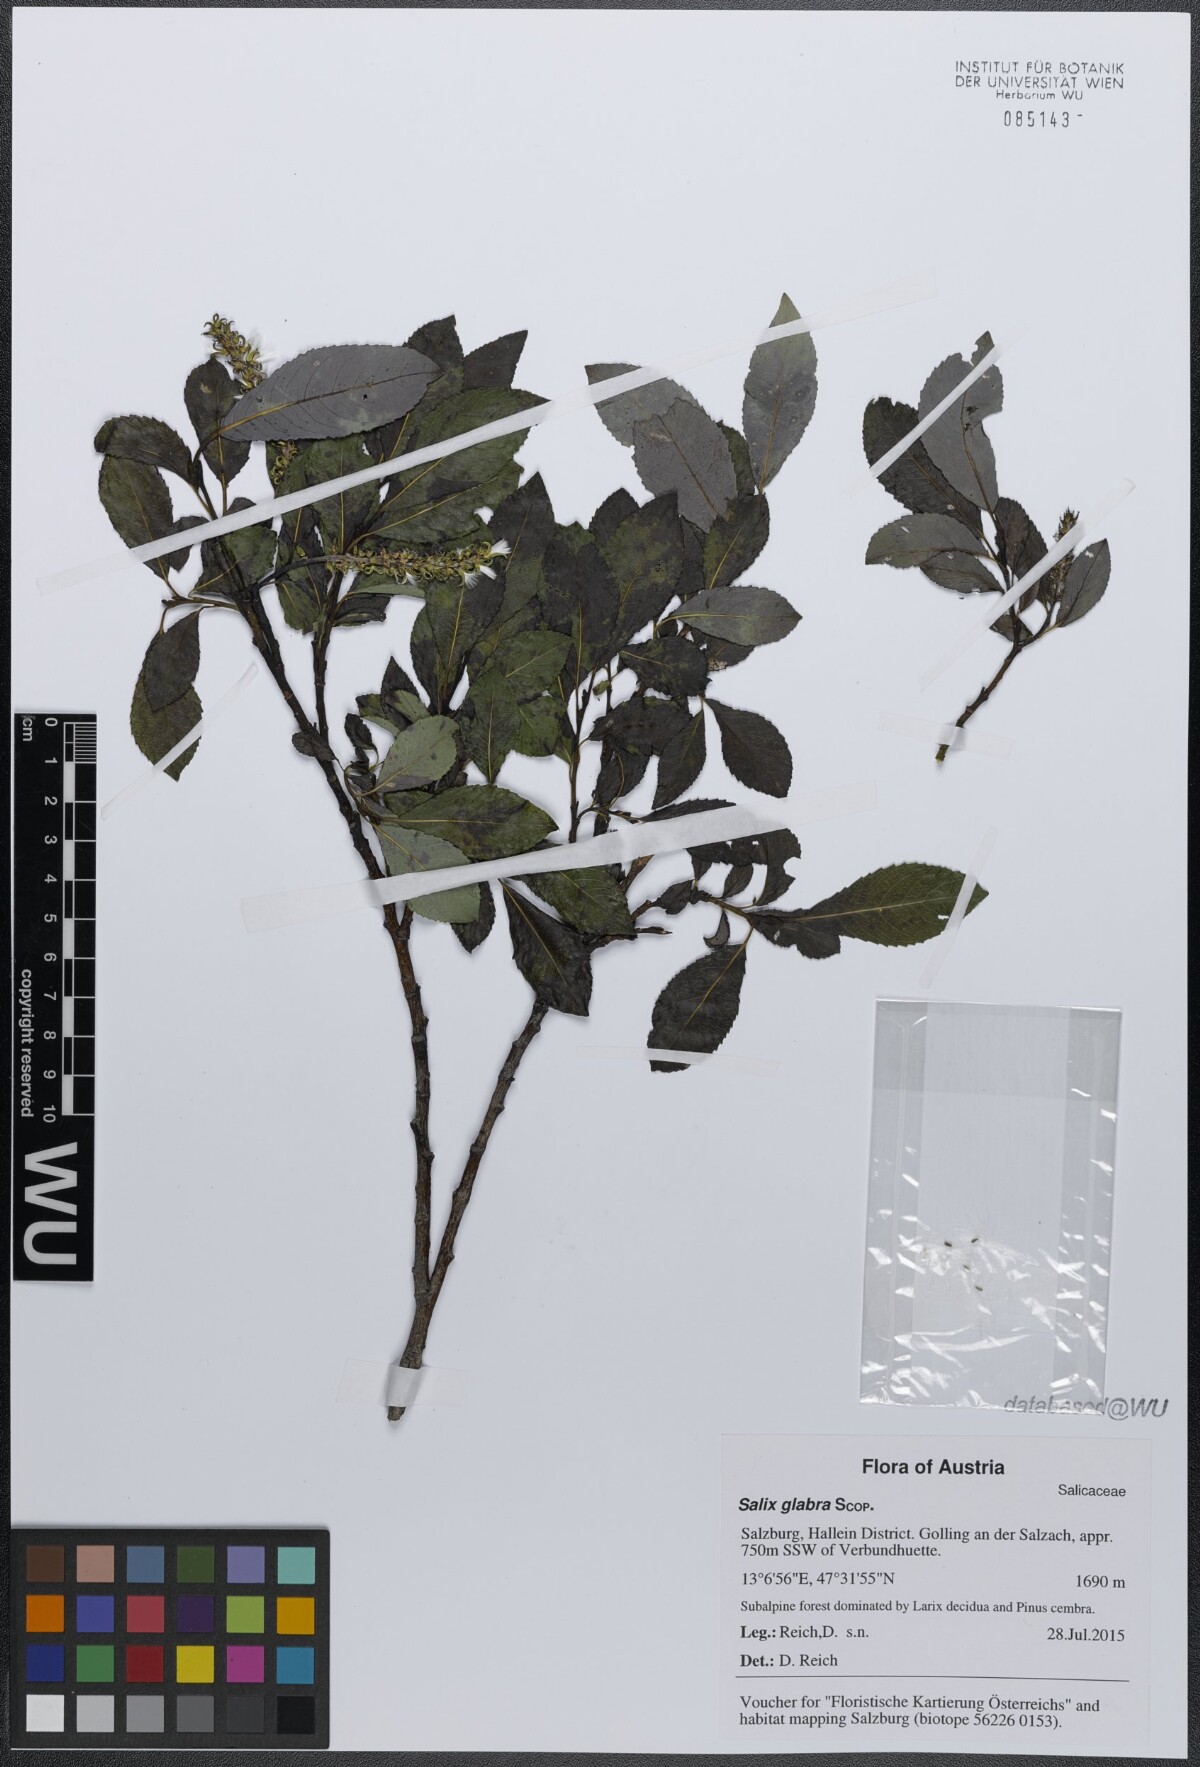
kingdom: Plantae
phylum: Tracheophyta
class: Magnoliopsida
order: Malpighiales
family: Salicaceae
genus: Salix
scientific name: Salix glabra
